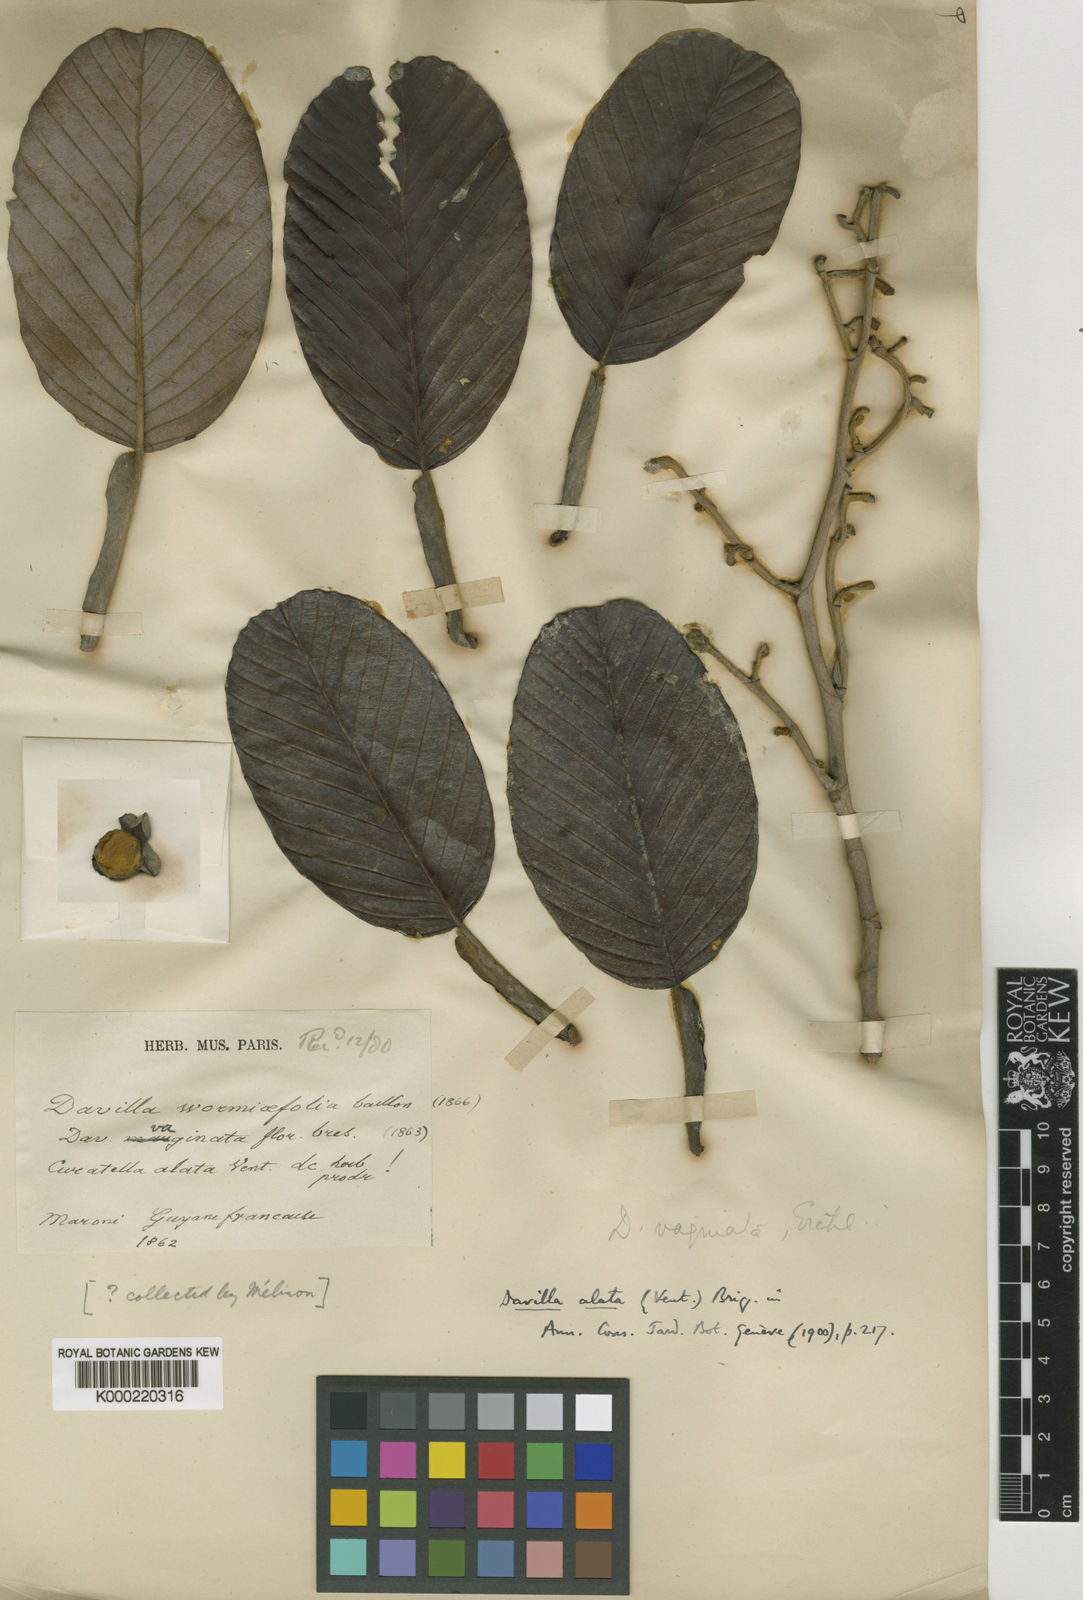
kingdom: Plantae
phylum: Tracheophyta
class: Magnoliopsida
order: Dilleniales
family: Dilleniaceae
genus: Davilla
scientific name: Davilla alata
